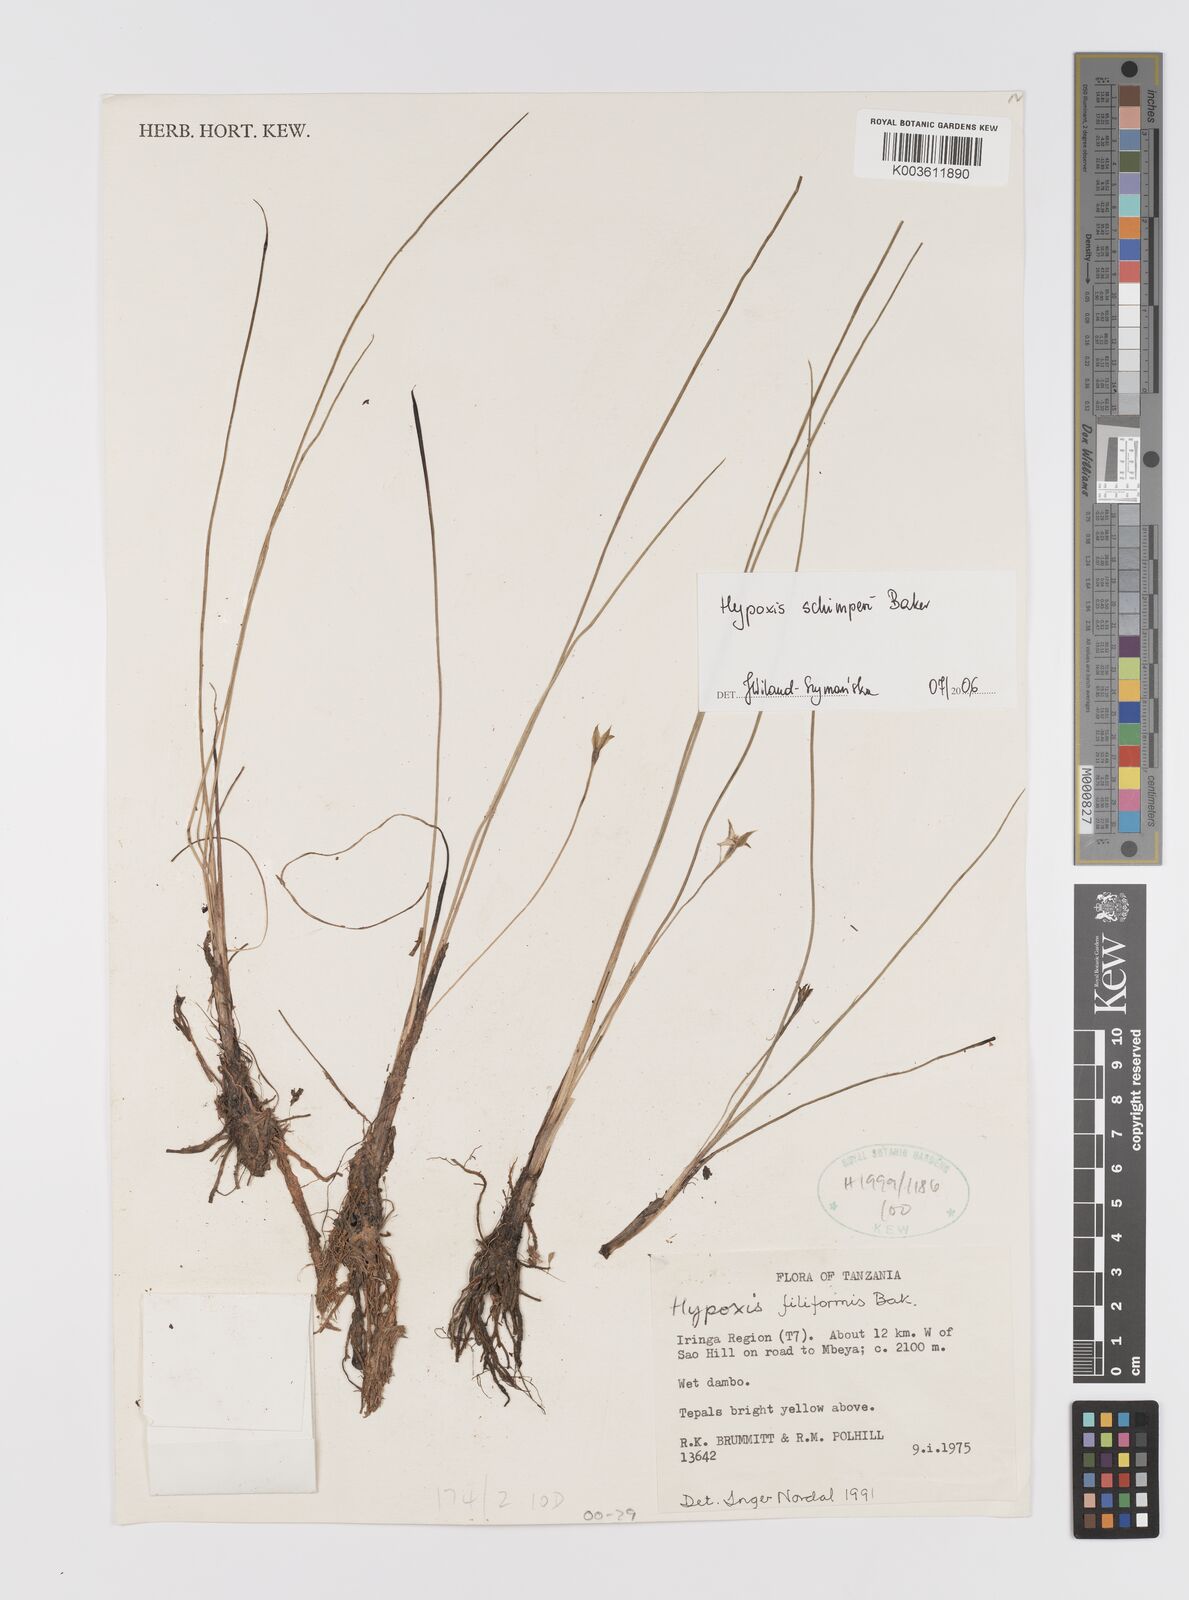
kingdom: Plantae
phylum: Tracheophyta
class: Liliopsida
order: Asparagales
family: Hypoxidaceae
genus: Hypoxis
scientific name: Hypoxis schimperi
